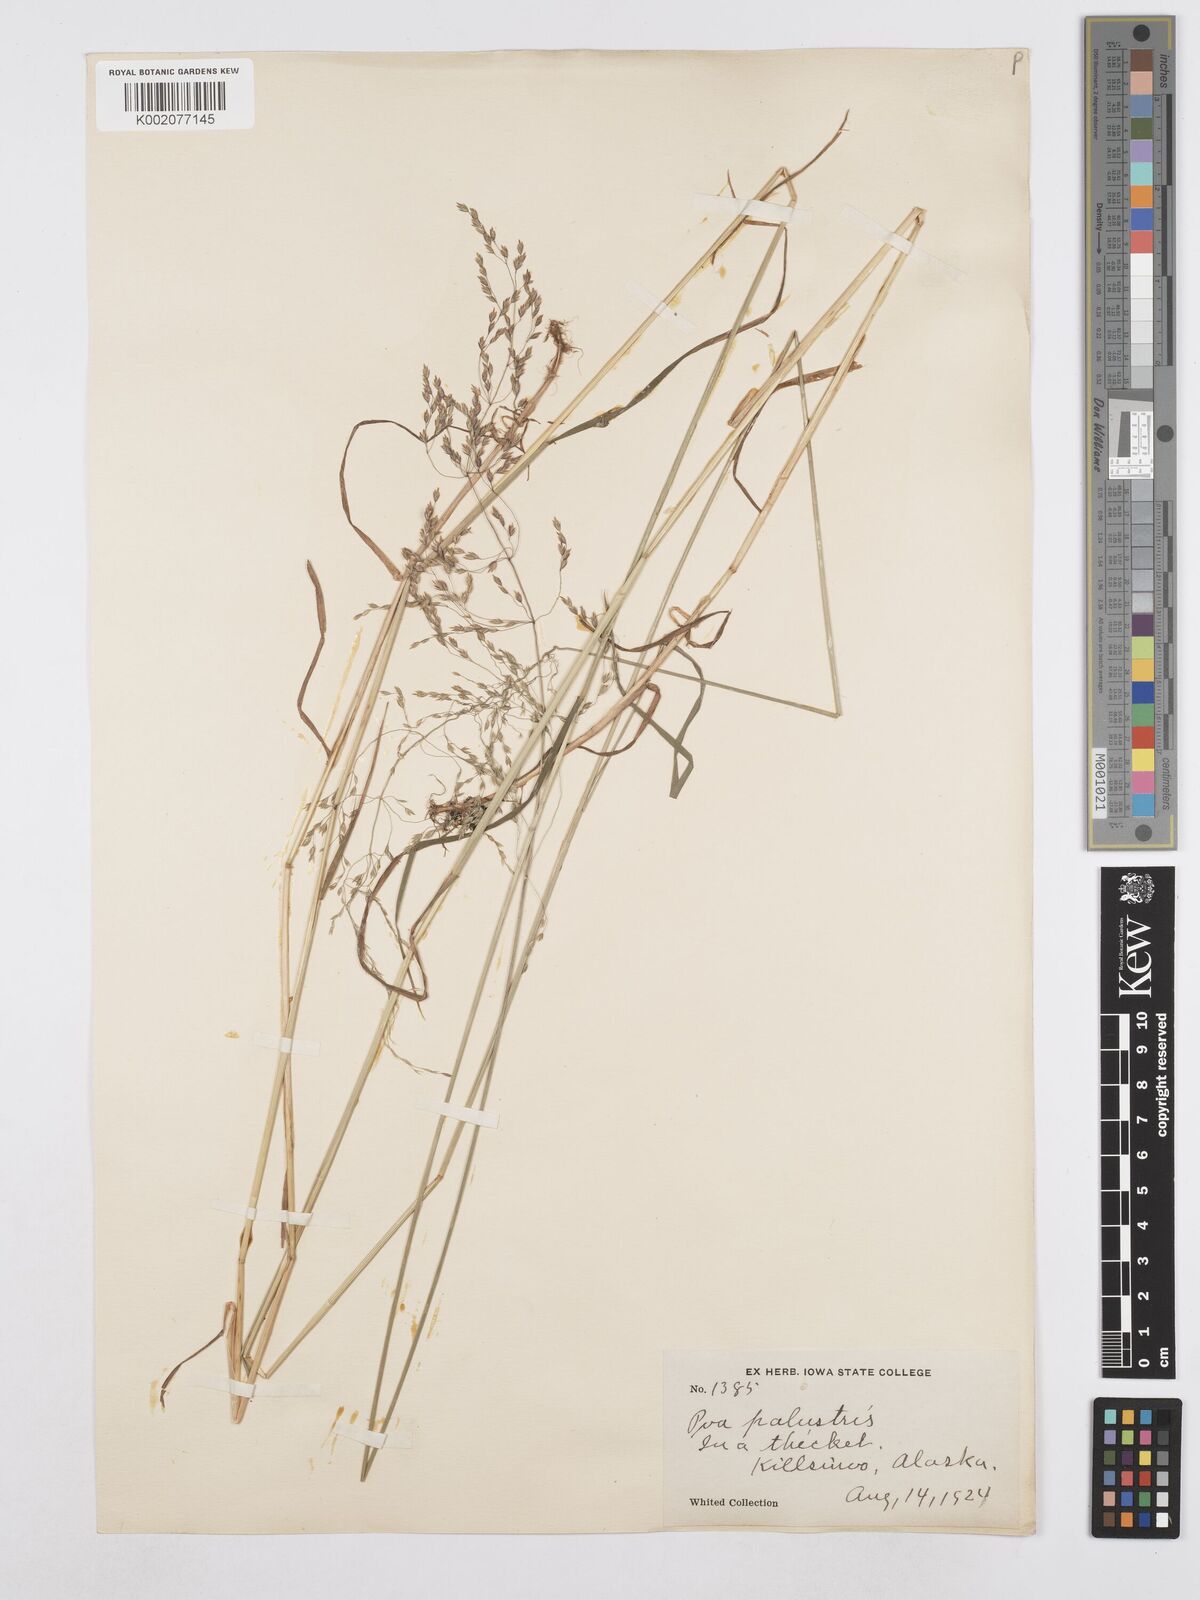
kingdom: Plantae
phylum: Tracheophyta
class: Liliopsida
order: Poales
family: Poaceae
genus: Poa
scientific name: Poa palustris
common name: Swamp meadow-grass
